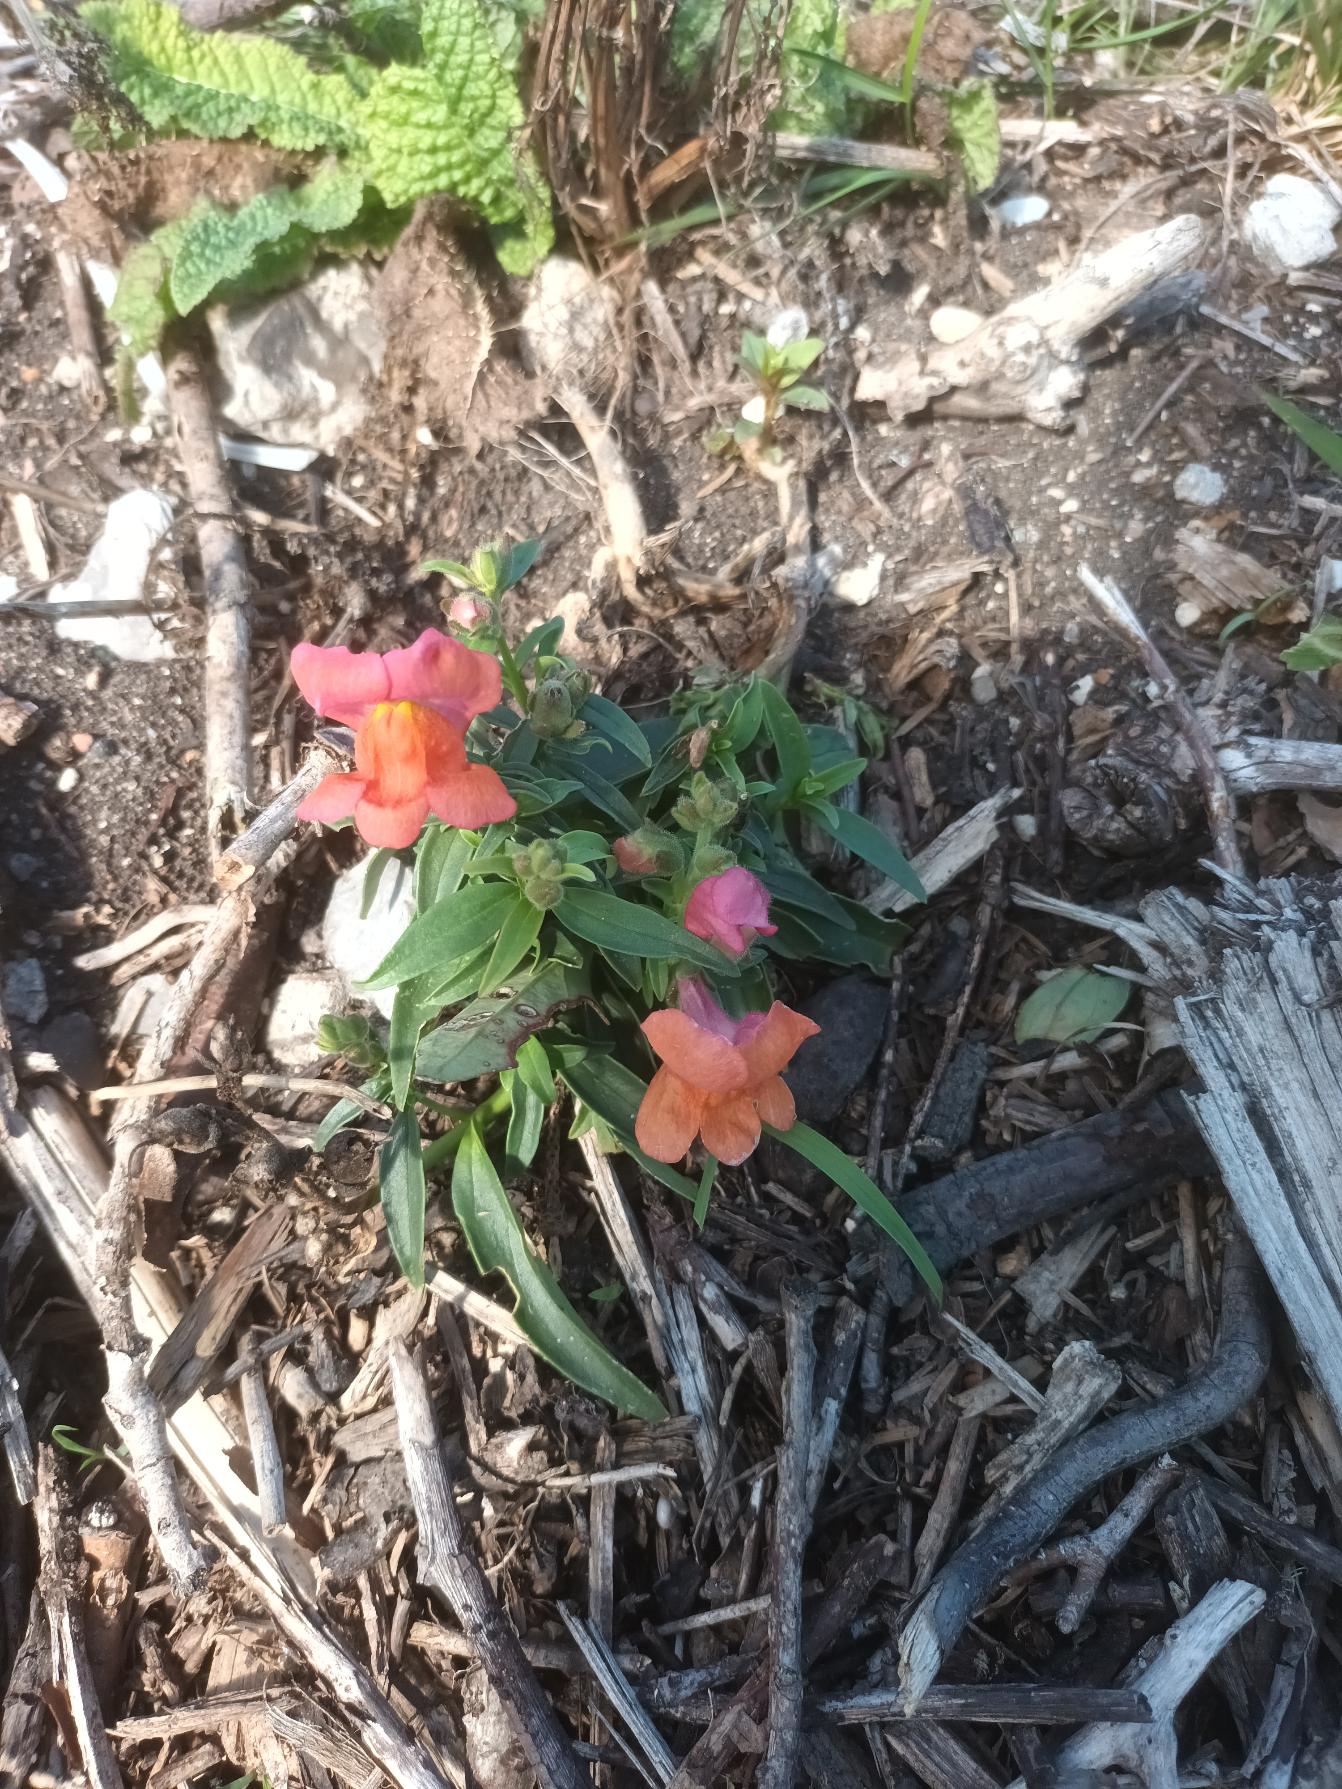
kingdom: Plantae
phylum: Tracheophyta
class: Magnoliopsida
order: Lamiales
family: Plantaginaceae
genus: Antirrhinum
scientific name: Antirrhinum majus
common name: Have-løvemund
